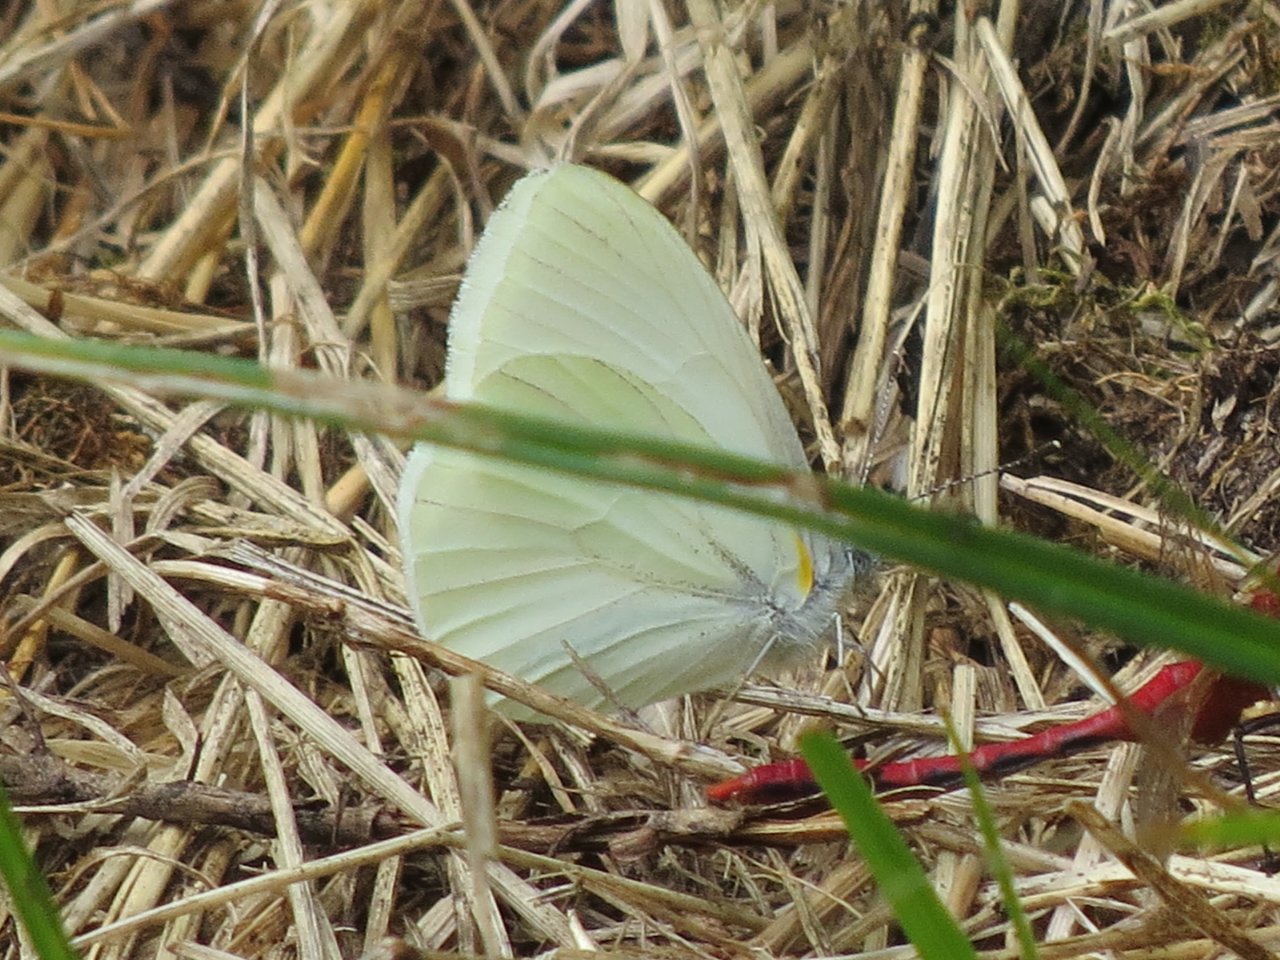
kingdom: Animalia
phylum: Arthropoda
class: Insecta
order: Lepidoptera
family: Pieridae
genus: Pieris
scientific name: Pieris oleracea
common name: Mustard White
